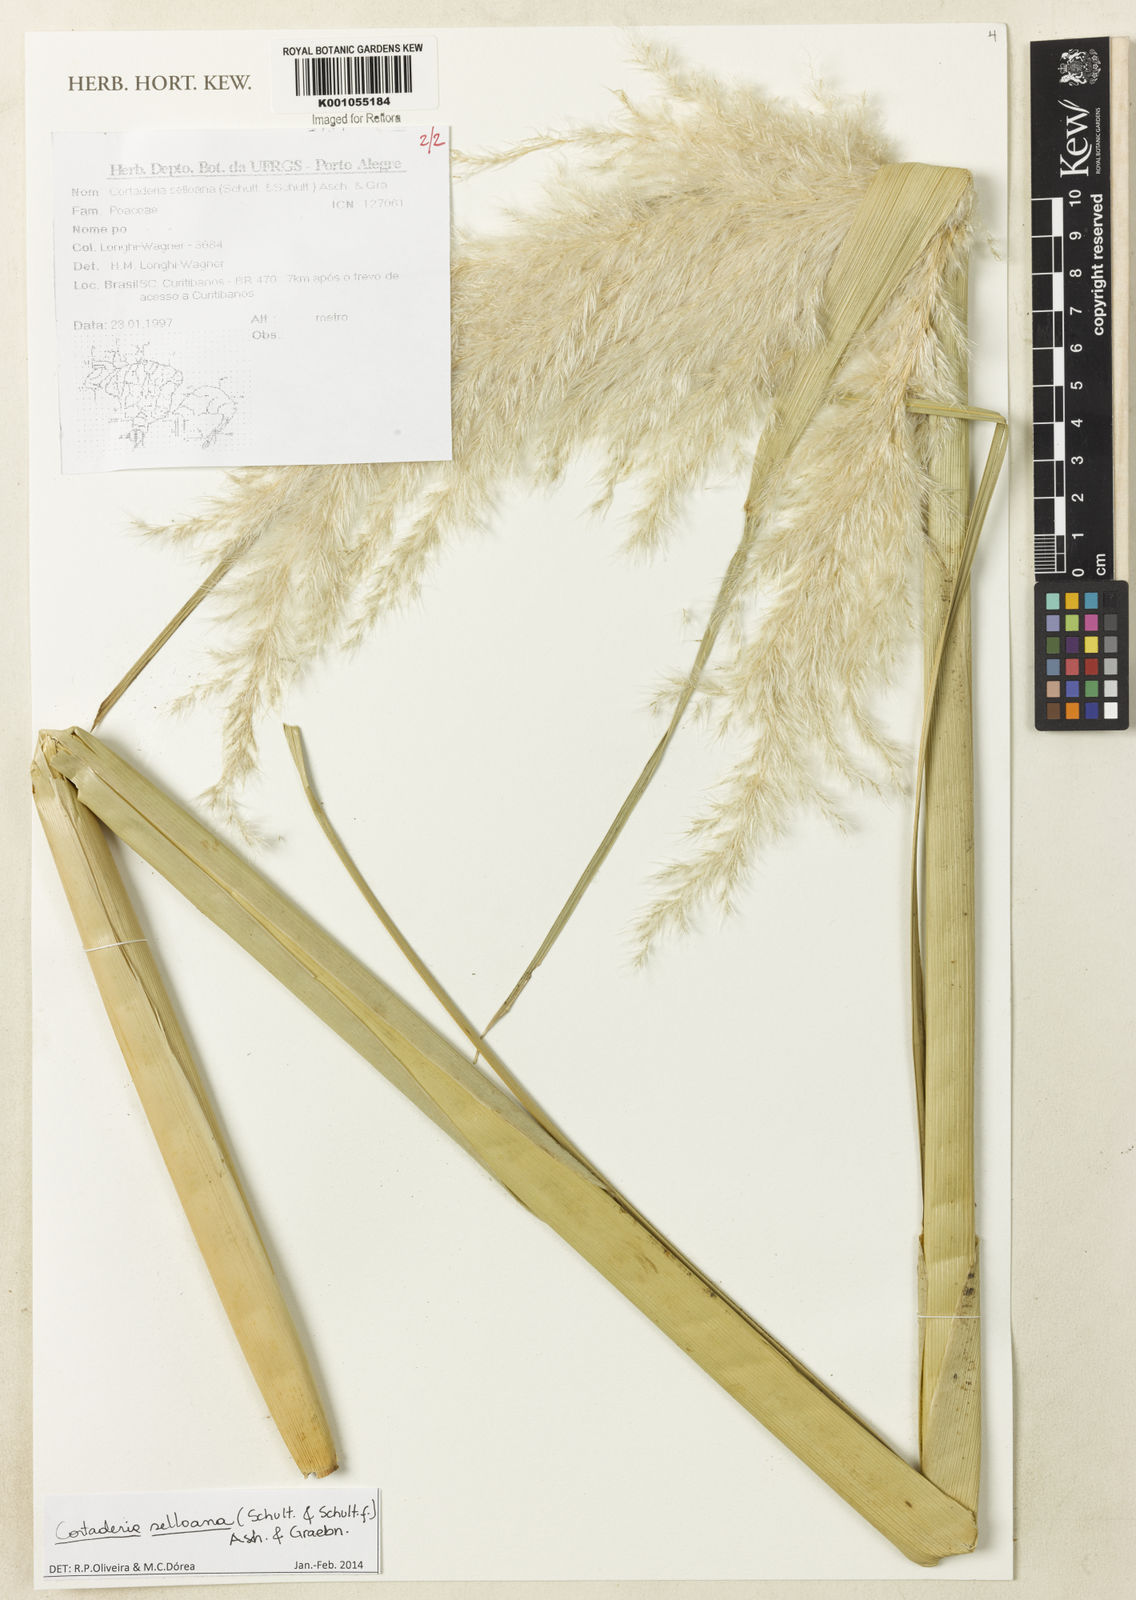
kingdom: Plantae
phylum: Tracheophyta
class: Liliopsida
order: Poales
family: Poaceae
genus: Cortaderia
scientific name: Cortaderia selloana
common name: Uruguayan pampas grass
